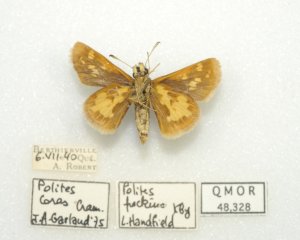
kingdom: Animalia
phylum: Arthropoda
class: Insecta
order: Lepidoptera
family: Hesperiidae
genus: Polites
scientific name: Polites coras
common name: Peck's Skipper
